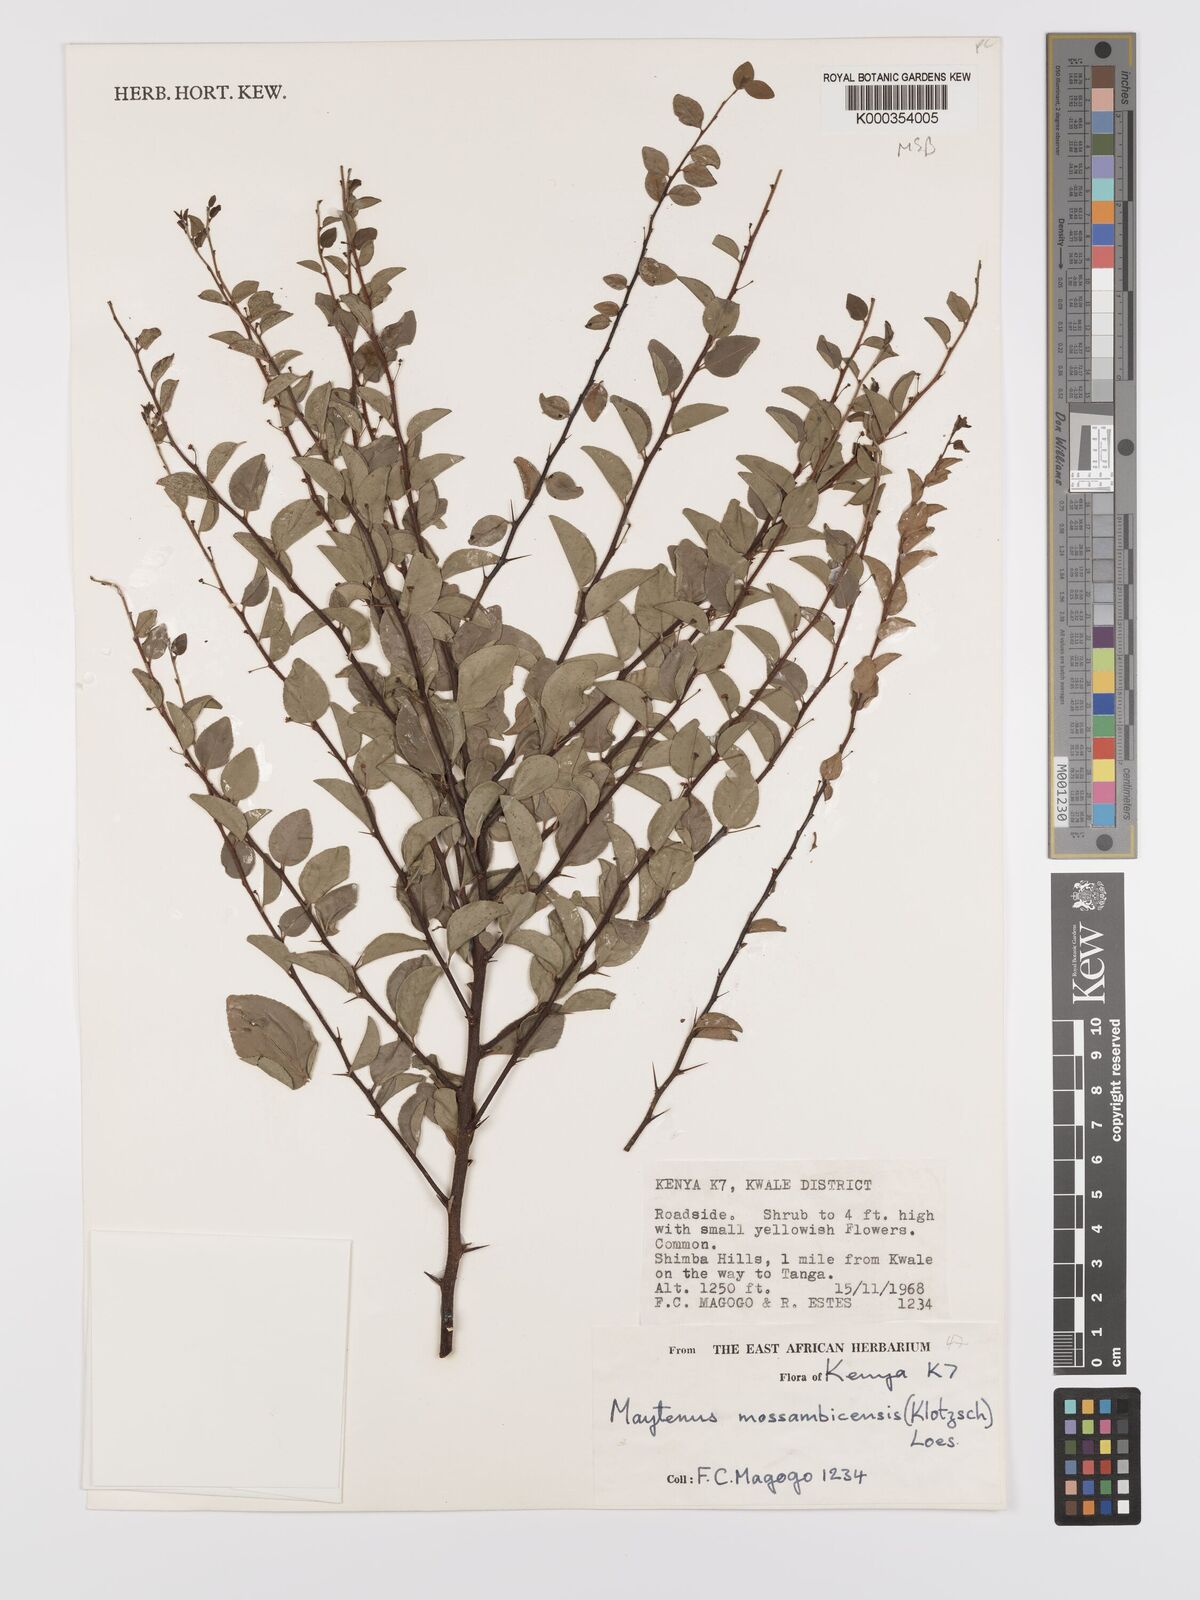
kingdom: Plantae
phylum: Tracheophyta
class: Magnoliopsida
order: Celastrales
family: Celastraceae
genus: Gymnosporia
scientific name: Gymnosporia mossambicensis
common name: Black forest spike-thorn
